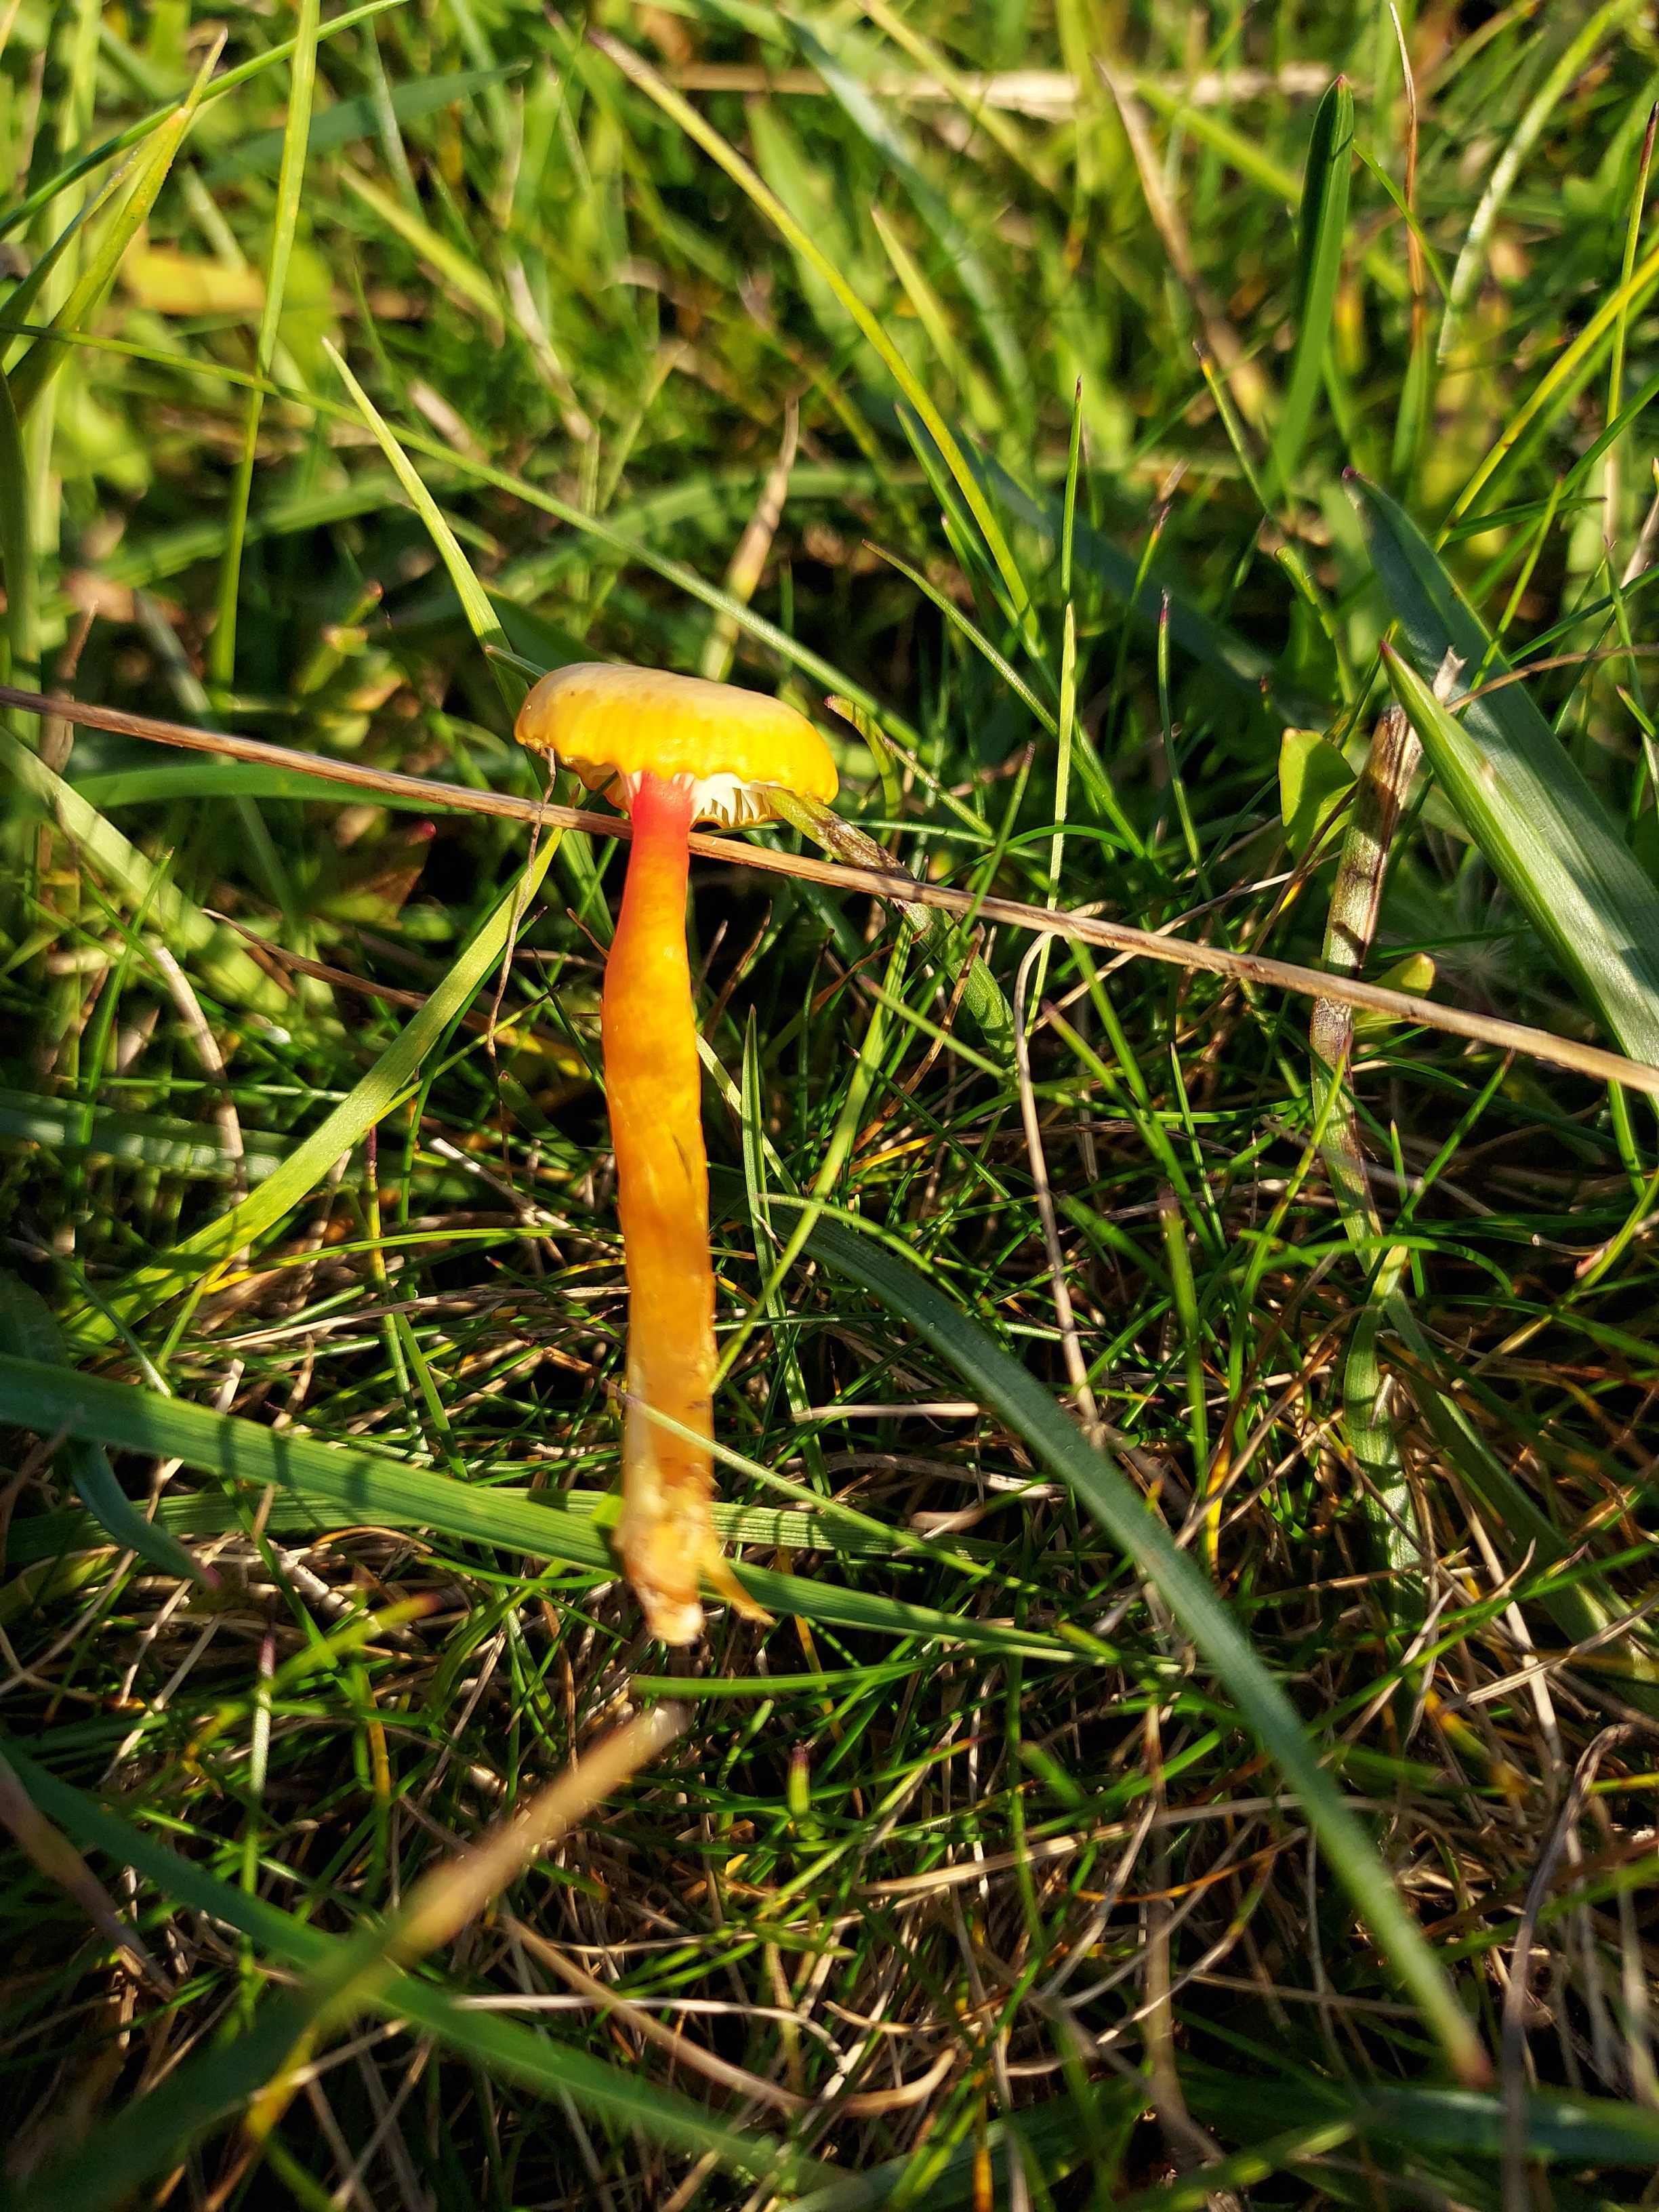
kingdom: Fungi
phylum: Basidiomycota
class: Agaricomycetes
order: Agaricales
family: Hygrophoraceae
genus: Hygrocybe
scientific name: Hygrocybe cantharellus
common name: kantarel-vokshat
